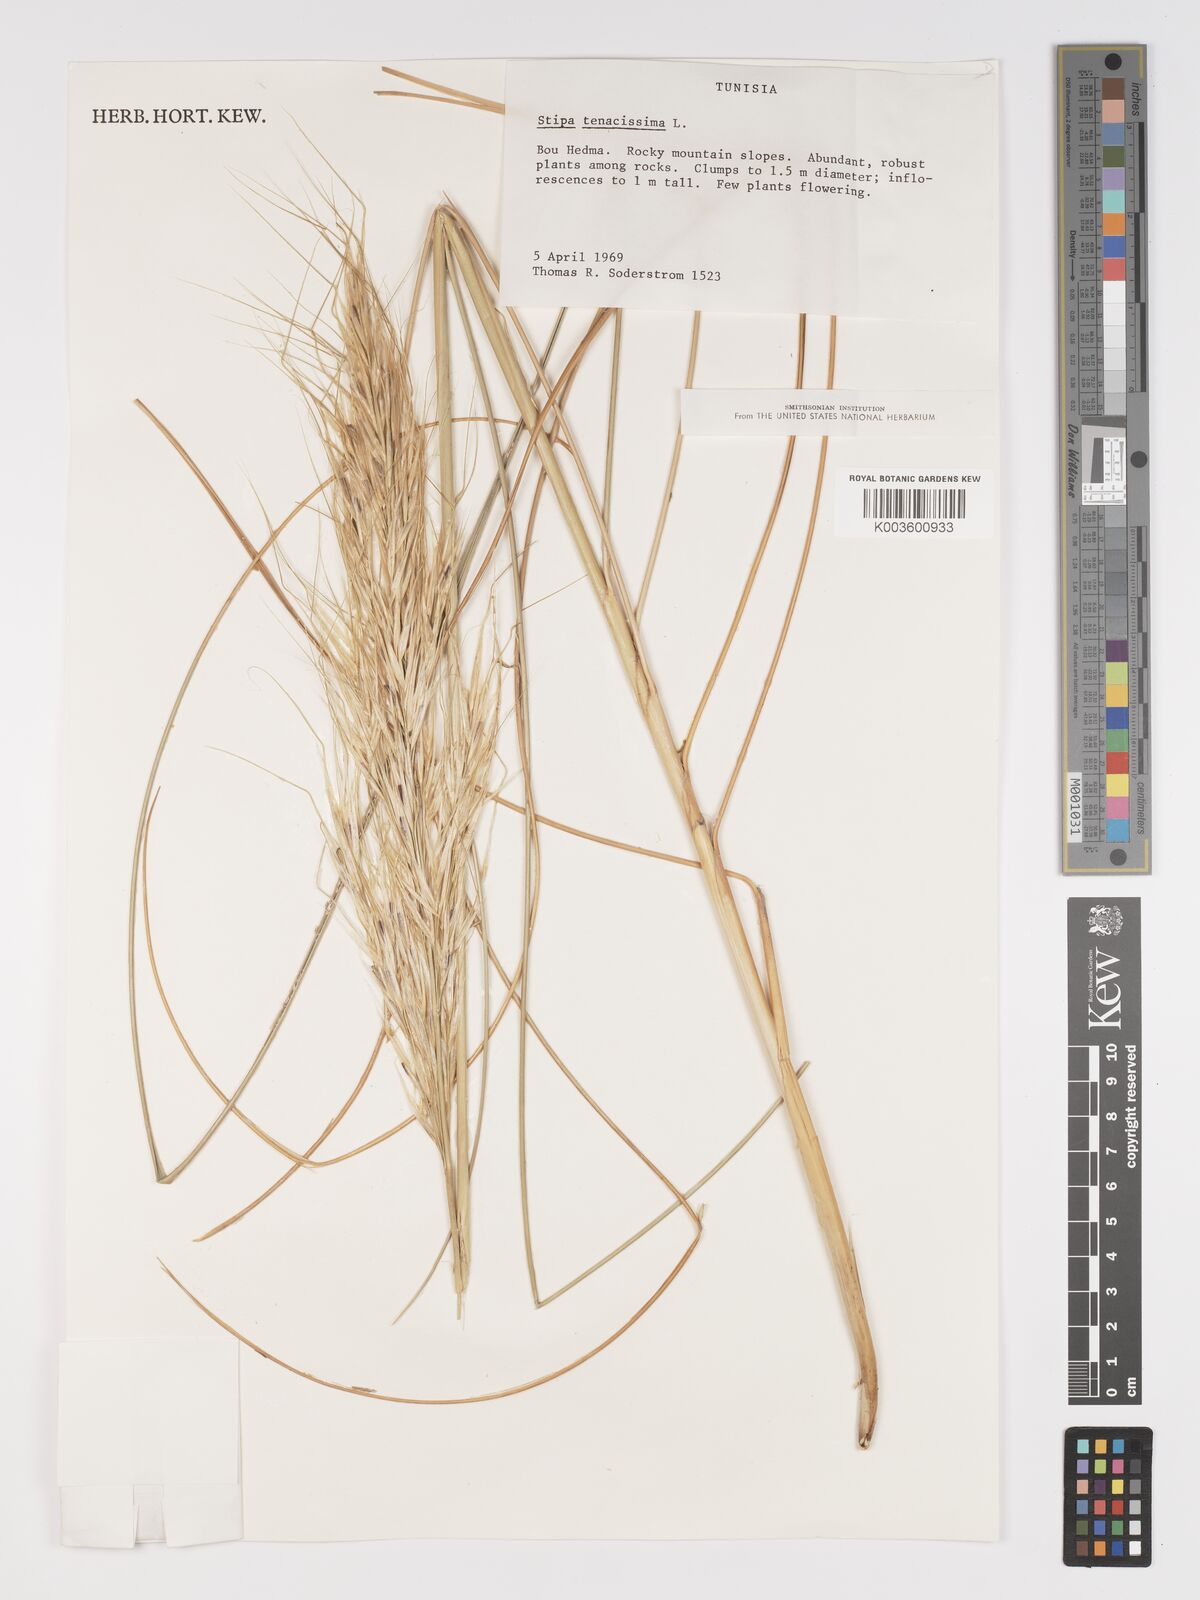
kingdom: Plantae
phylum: Tracheophyta
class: Liliopsida
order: Poales
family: Poaceae
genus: Macrochloa
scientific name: Macrochloa tenacissima
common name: Alfa grass
